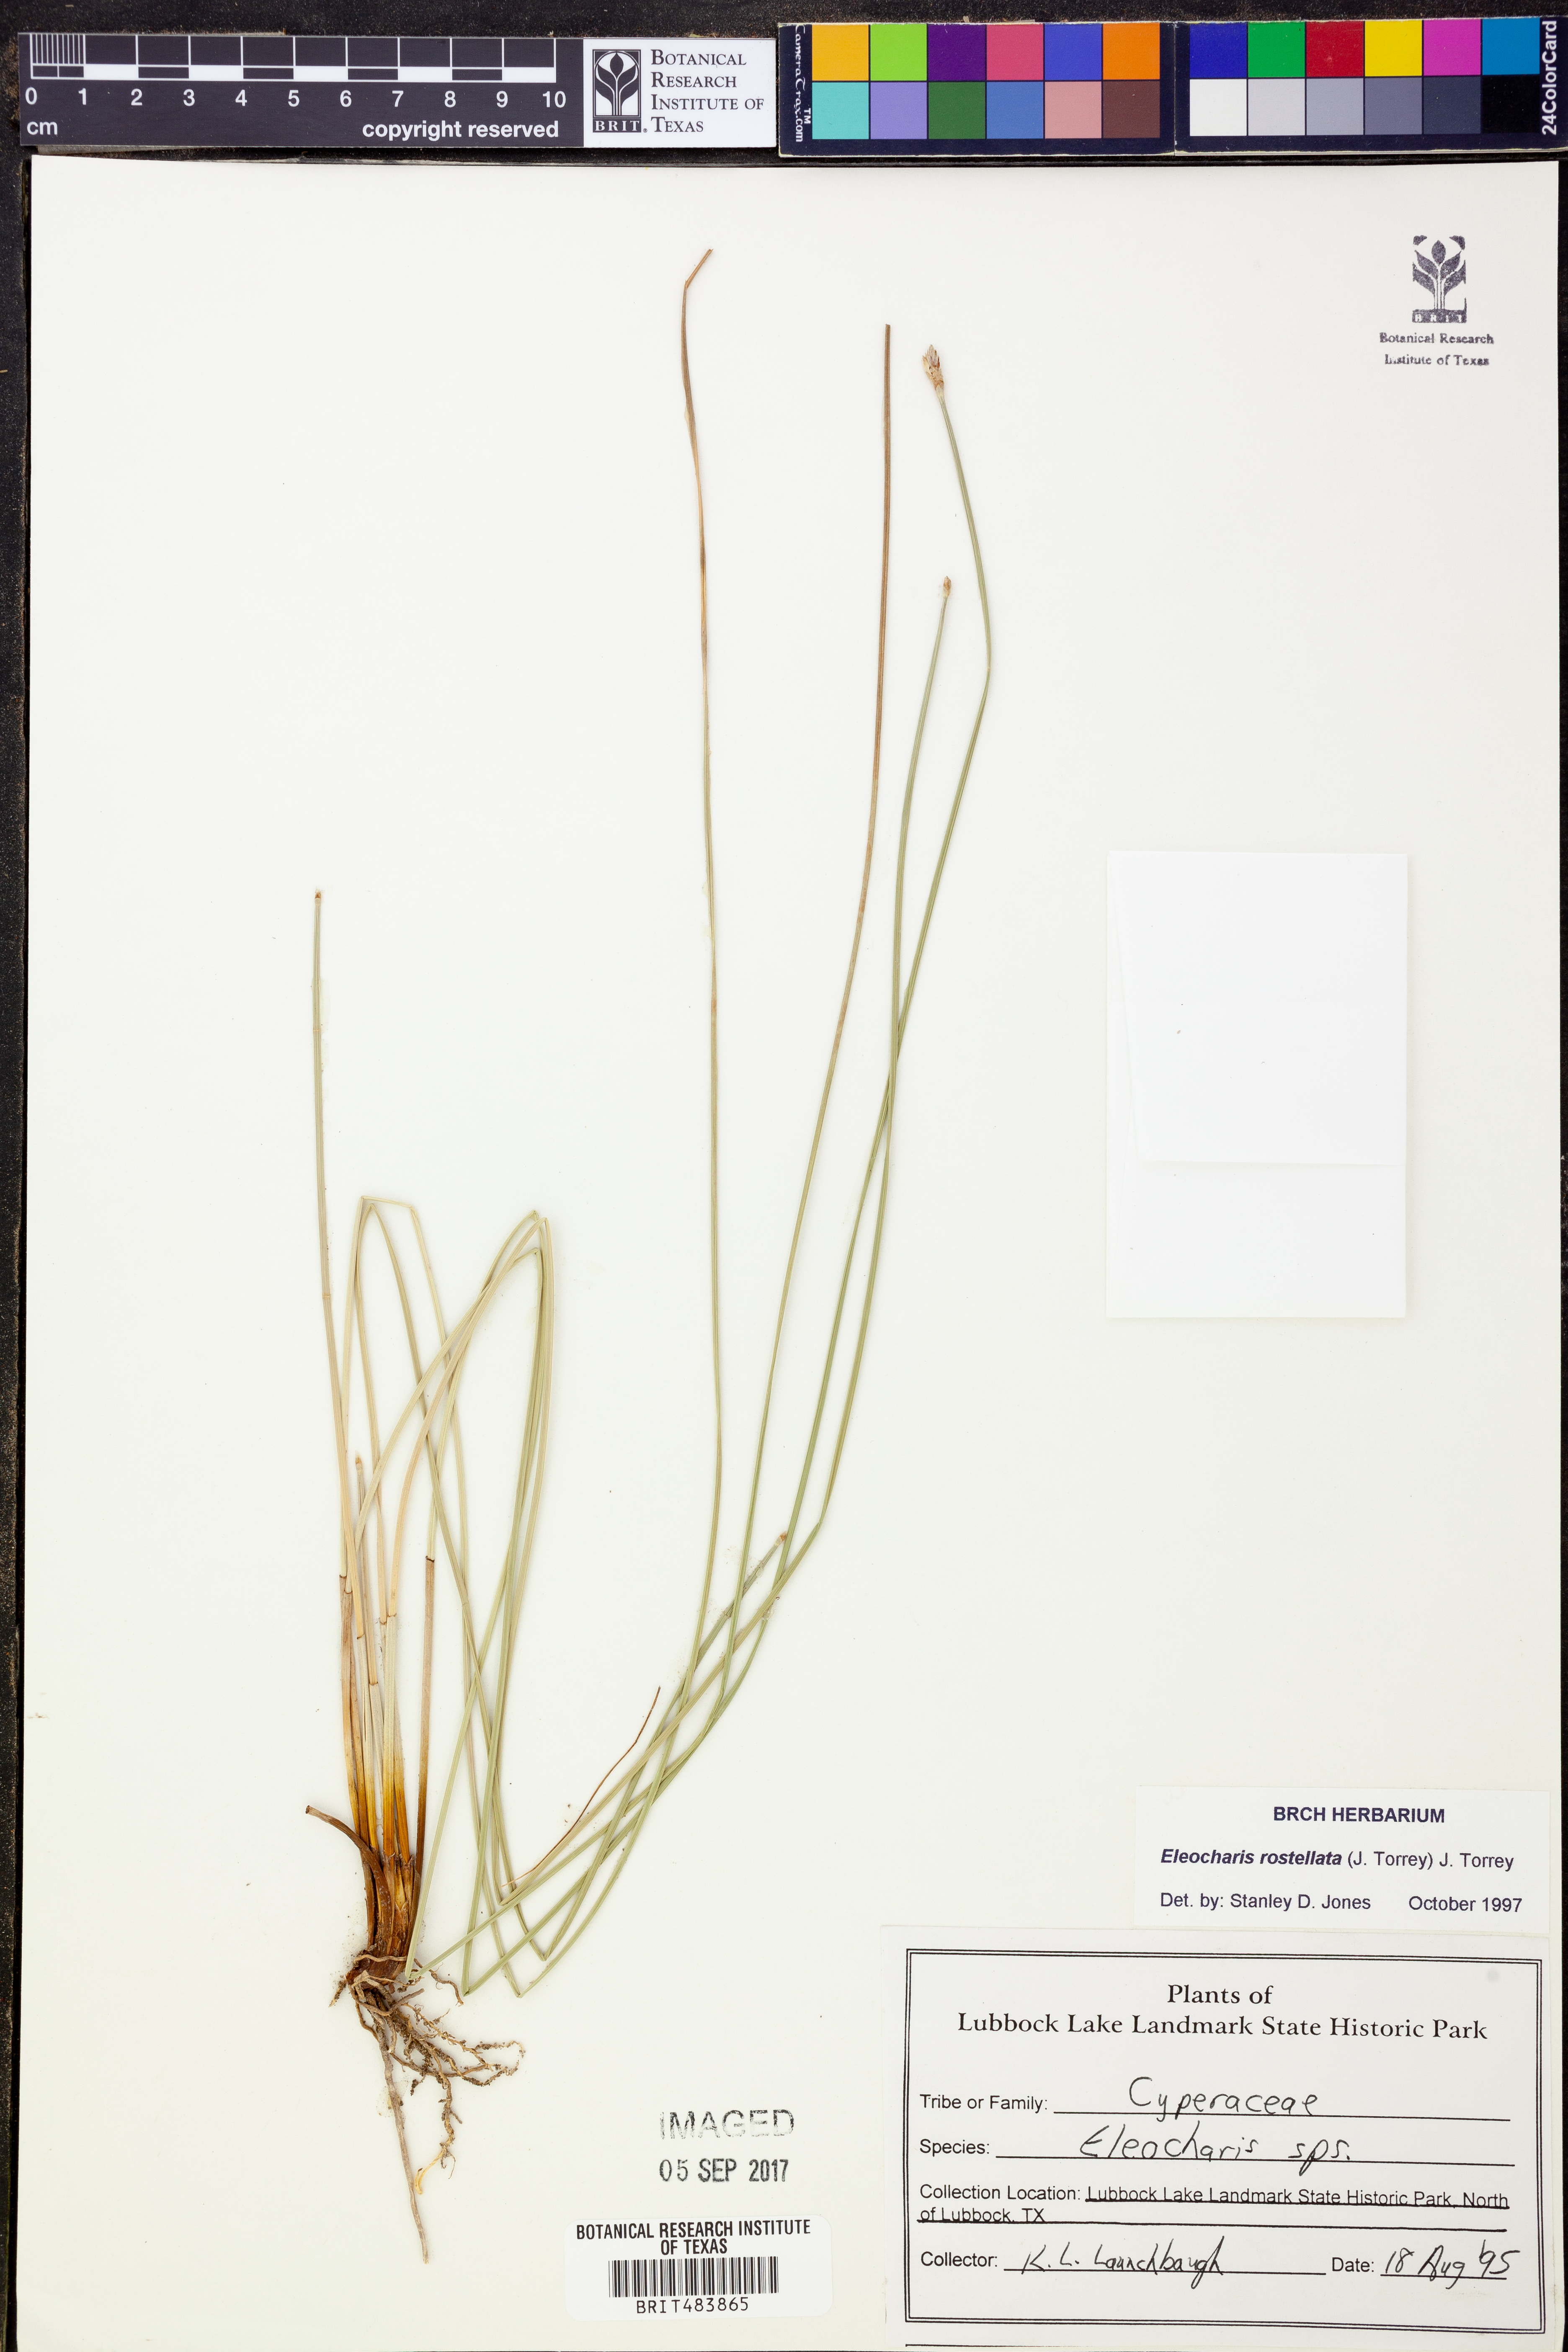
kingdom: Plantae
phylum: Tracheophyta
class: Liliopsida
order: Poales
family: Cyperaceae
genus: Eleocharis
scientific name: Eleocharis rostellata
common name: Walking sedge
